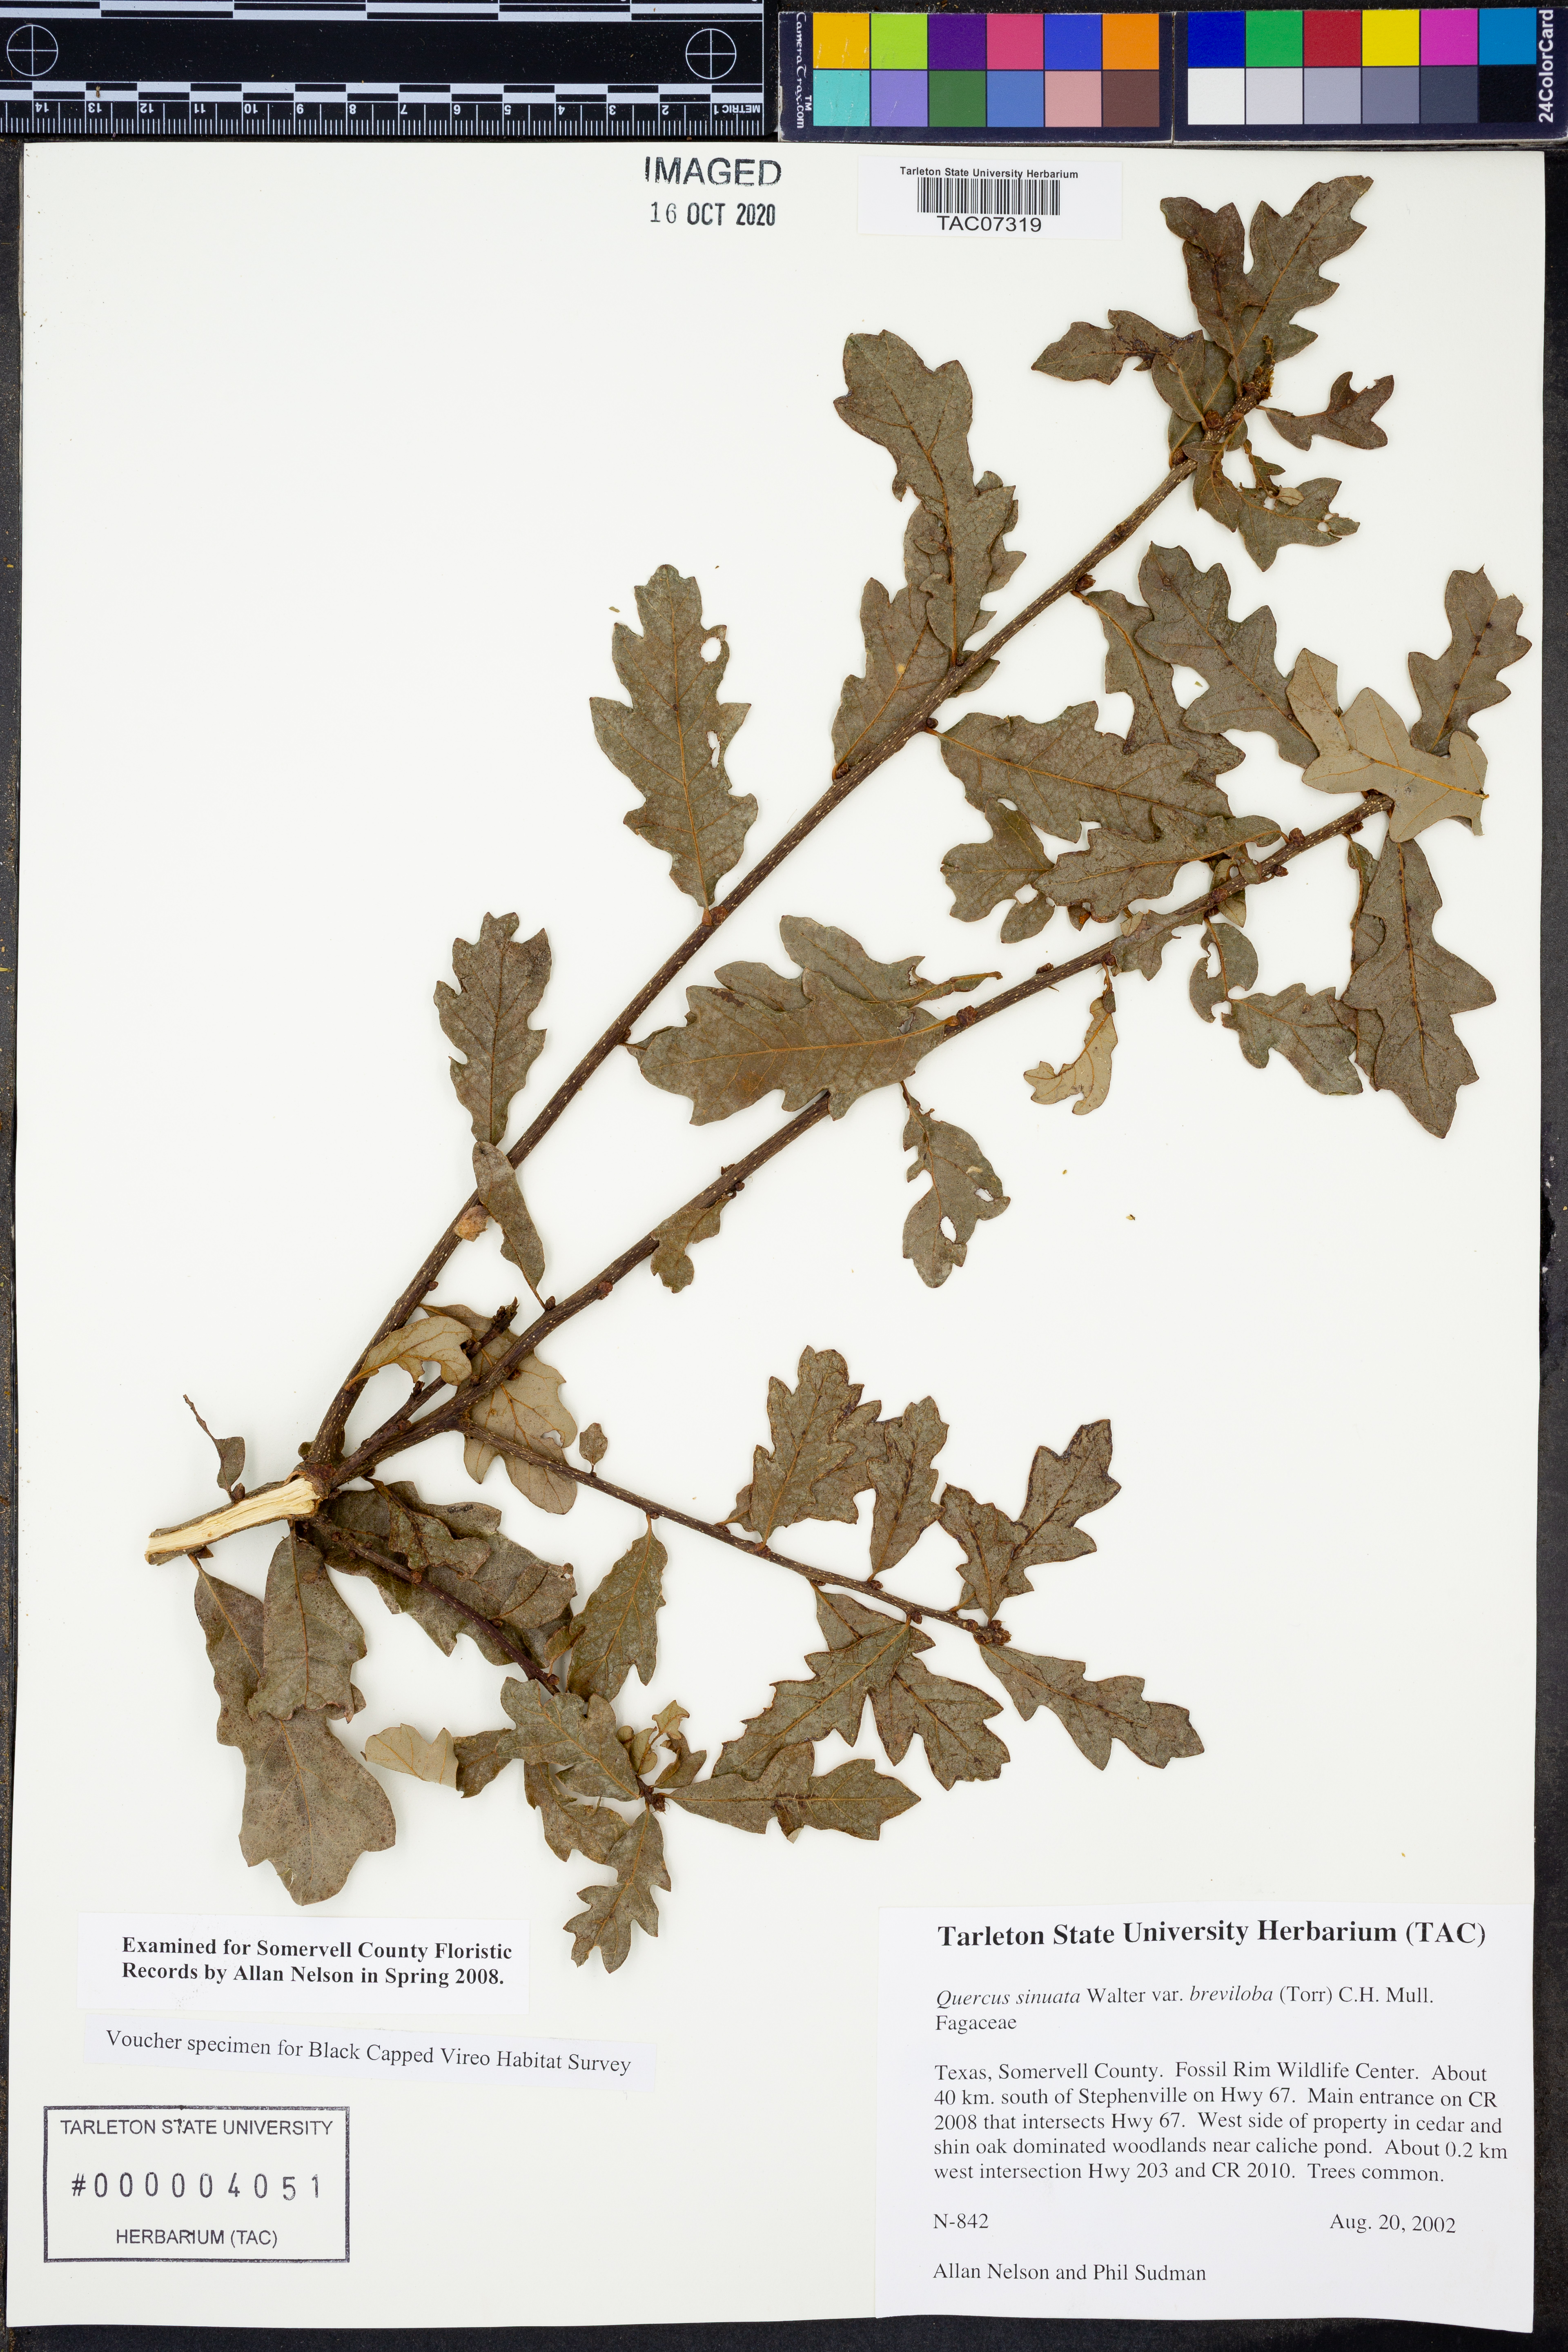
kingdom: Plantae
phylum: Tracheophyta
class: Magnoliopsida
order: Fagales
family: Fagaceae
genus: Quercus
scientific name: Quercus sinuata
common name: Durand oak
